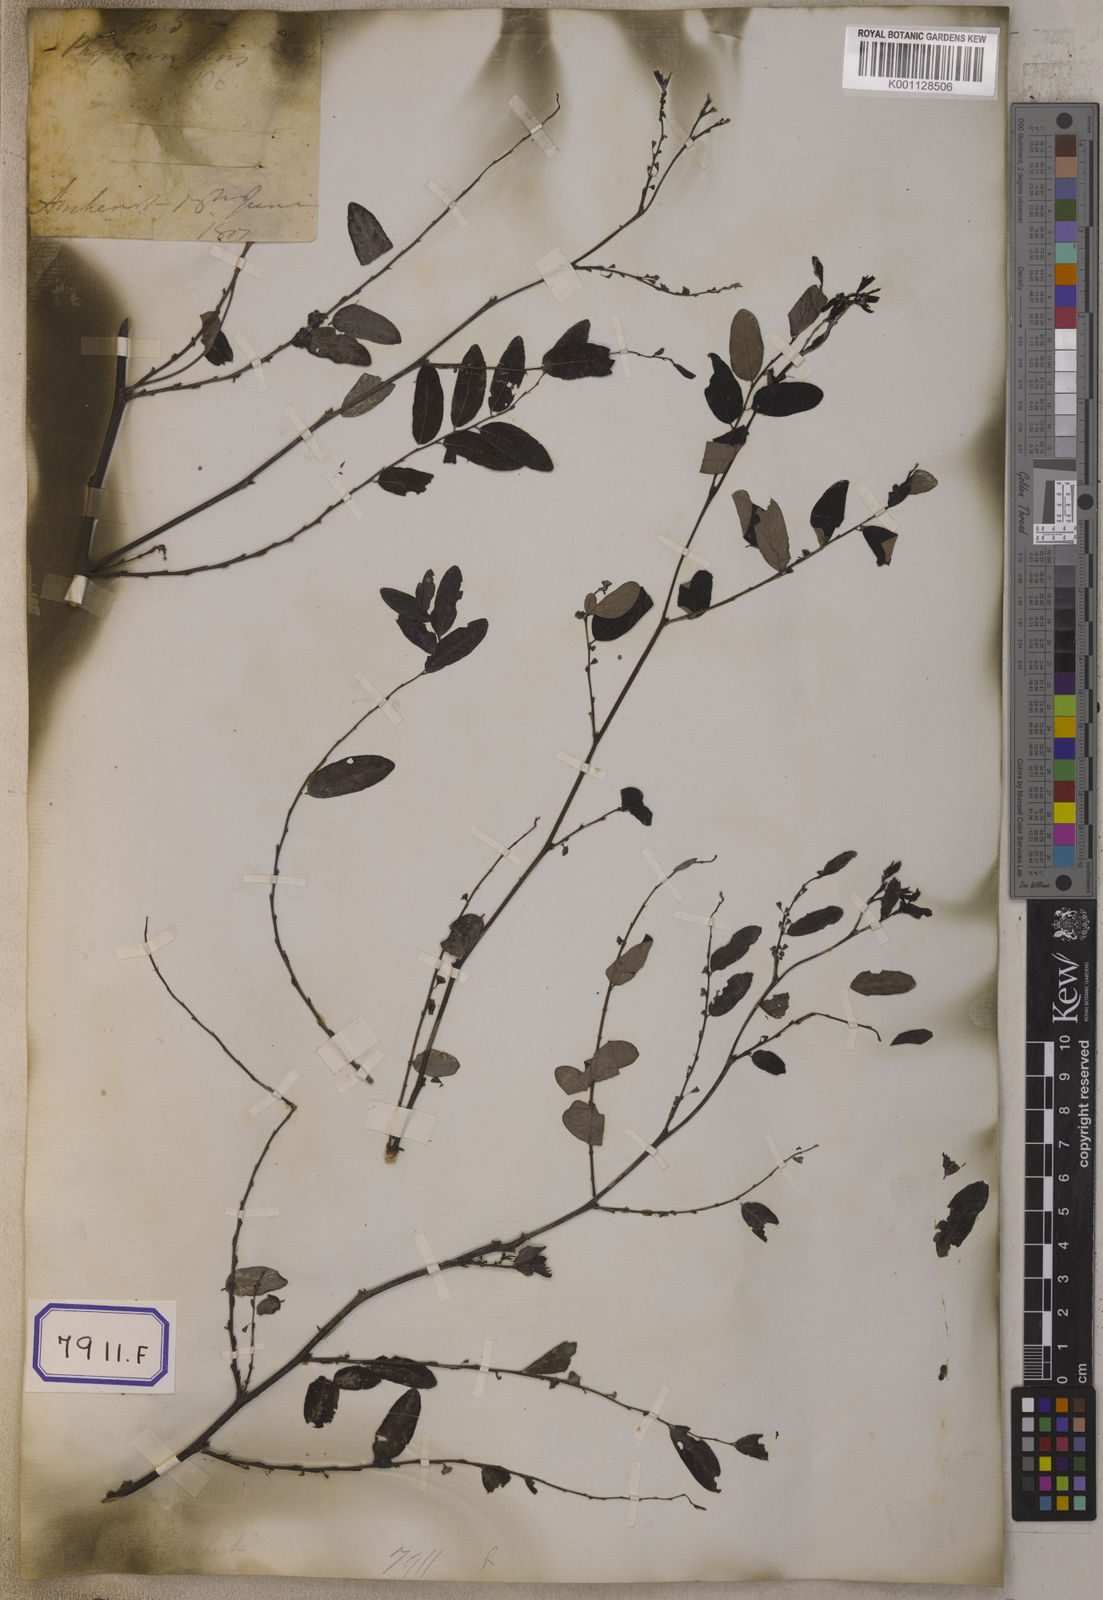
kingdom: Plantae
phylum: Tracheophyta
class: Magnoliopsida
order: Malpighiales
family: Euphorbiaceae
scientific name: Euphorbiaceae
